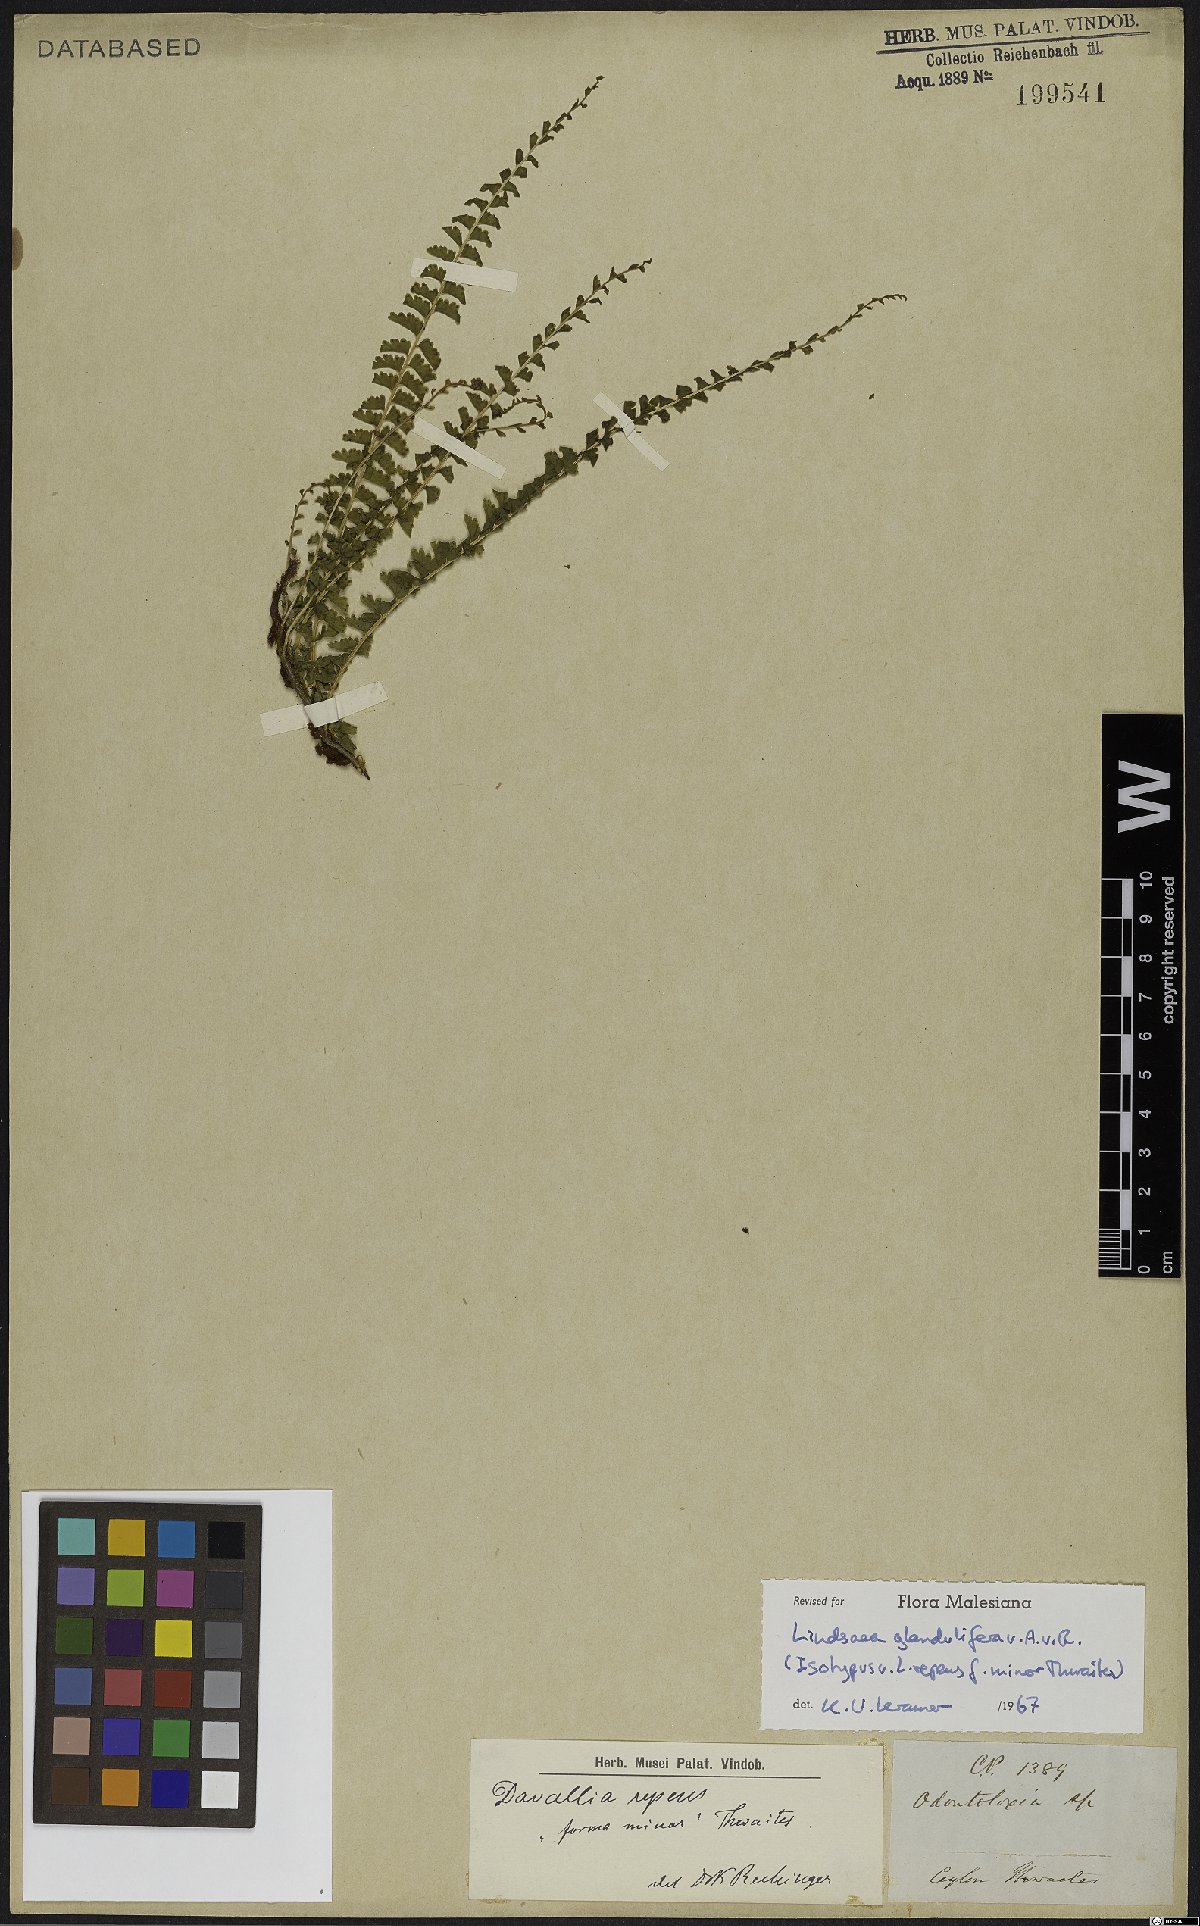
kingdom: Plantae
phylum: Tracheophyta
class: Polypodiopsida
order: Polypodiales
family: Lindsaeaceae
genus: Lindsaea
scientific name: Lindsaea glandulifera
